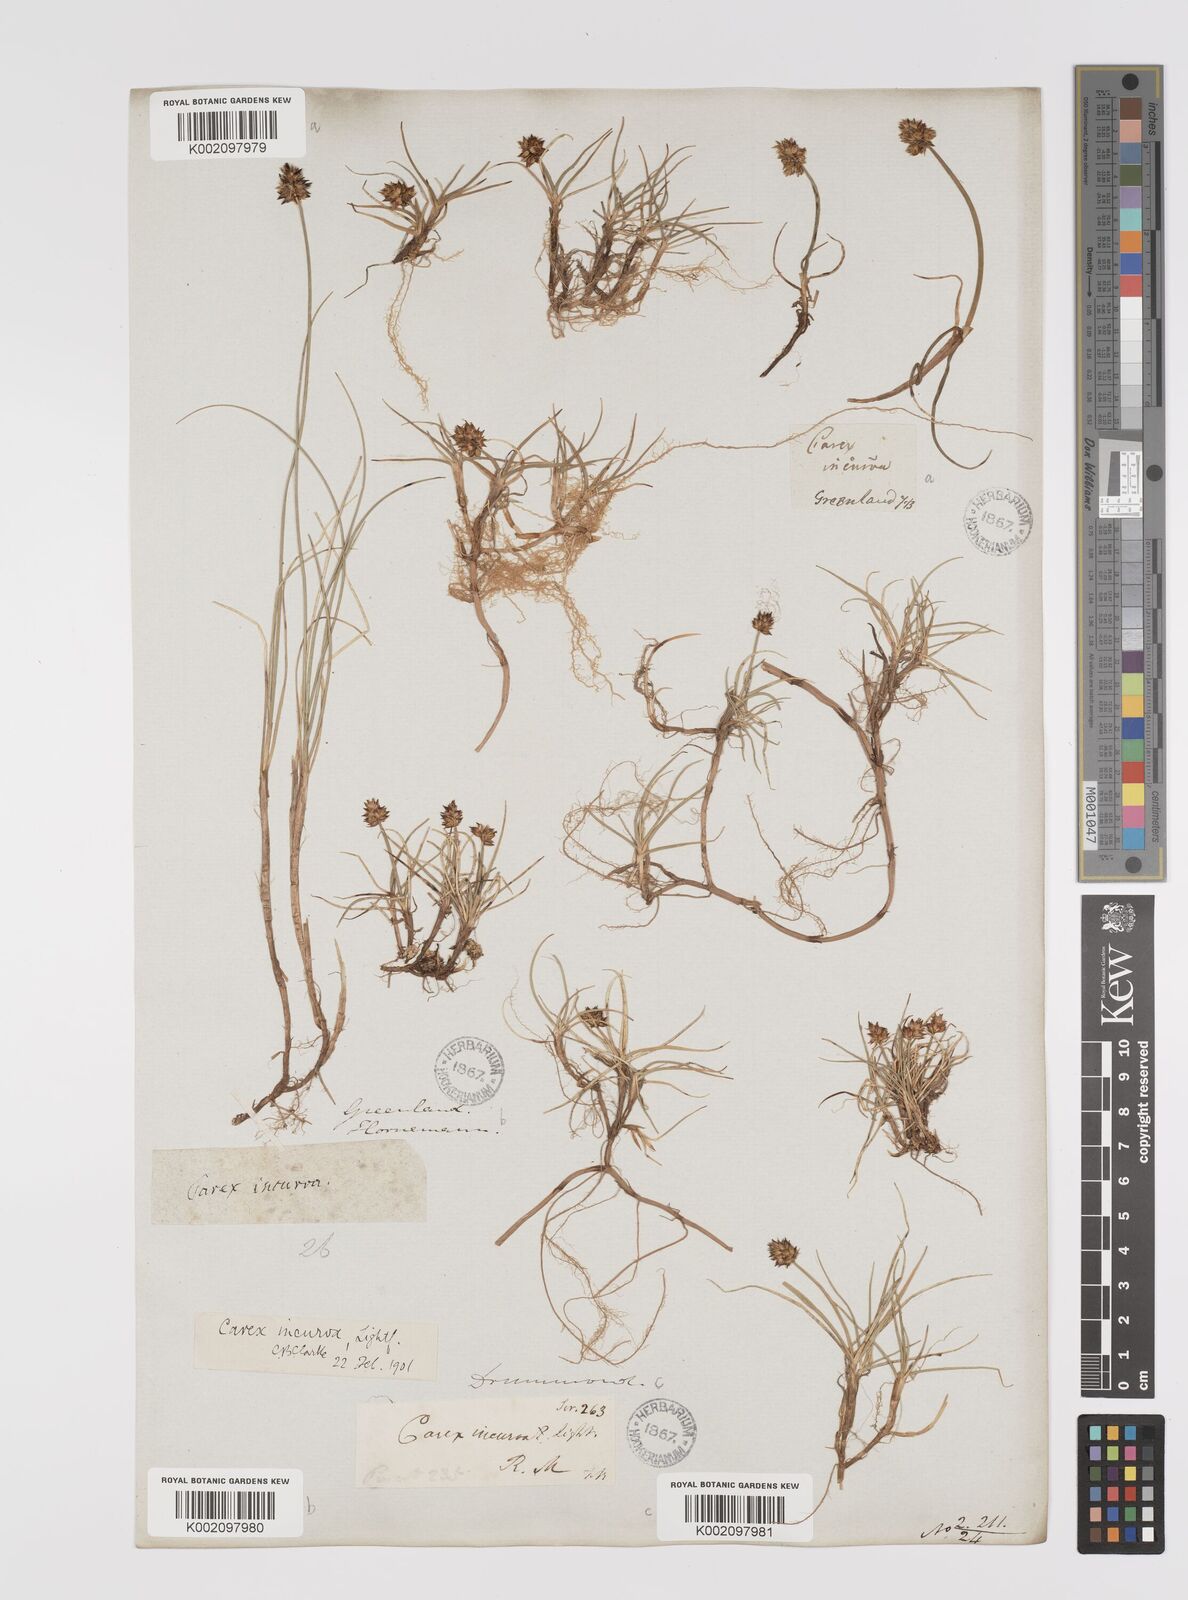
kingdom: Plantae
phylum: Tracheophyta
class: Liliopsida
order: Poales
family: Cyperaceae
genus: Carex
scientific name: Carex maritima
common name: Curved sedge
